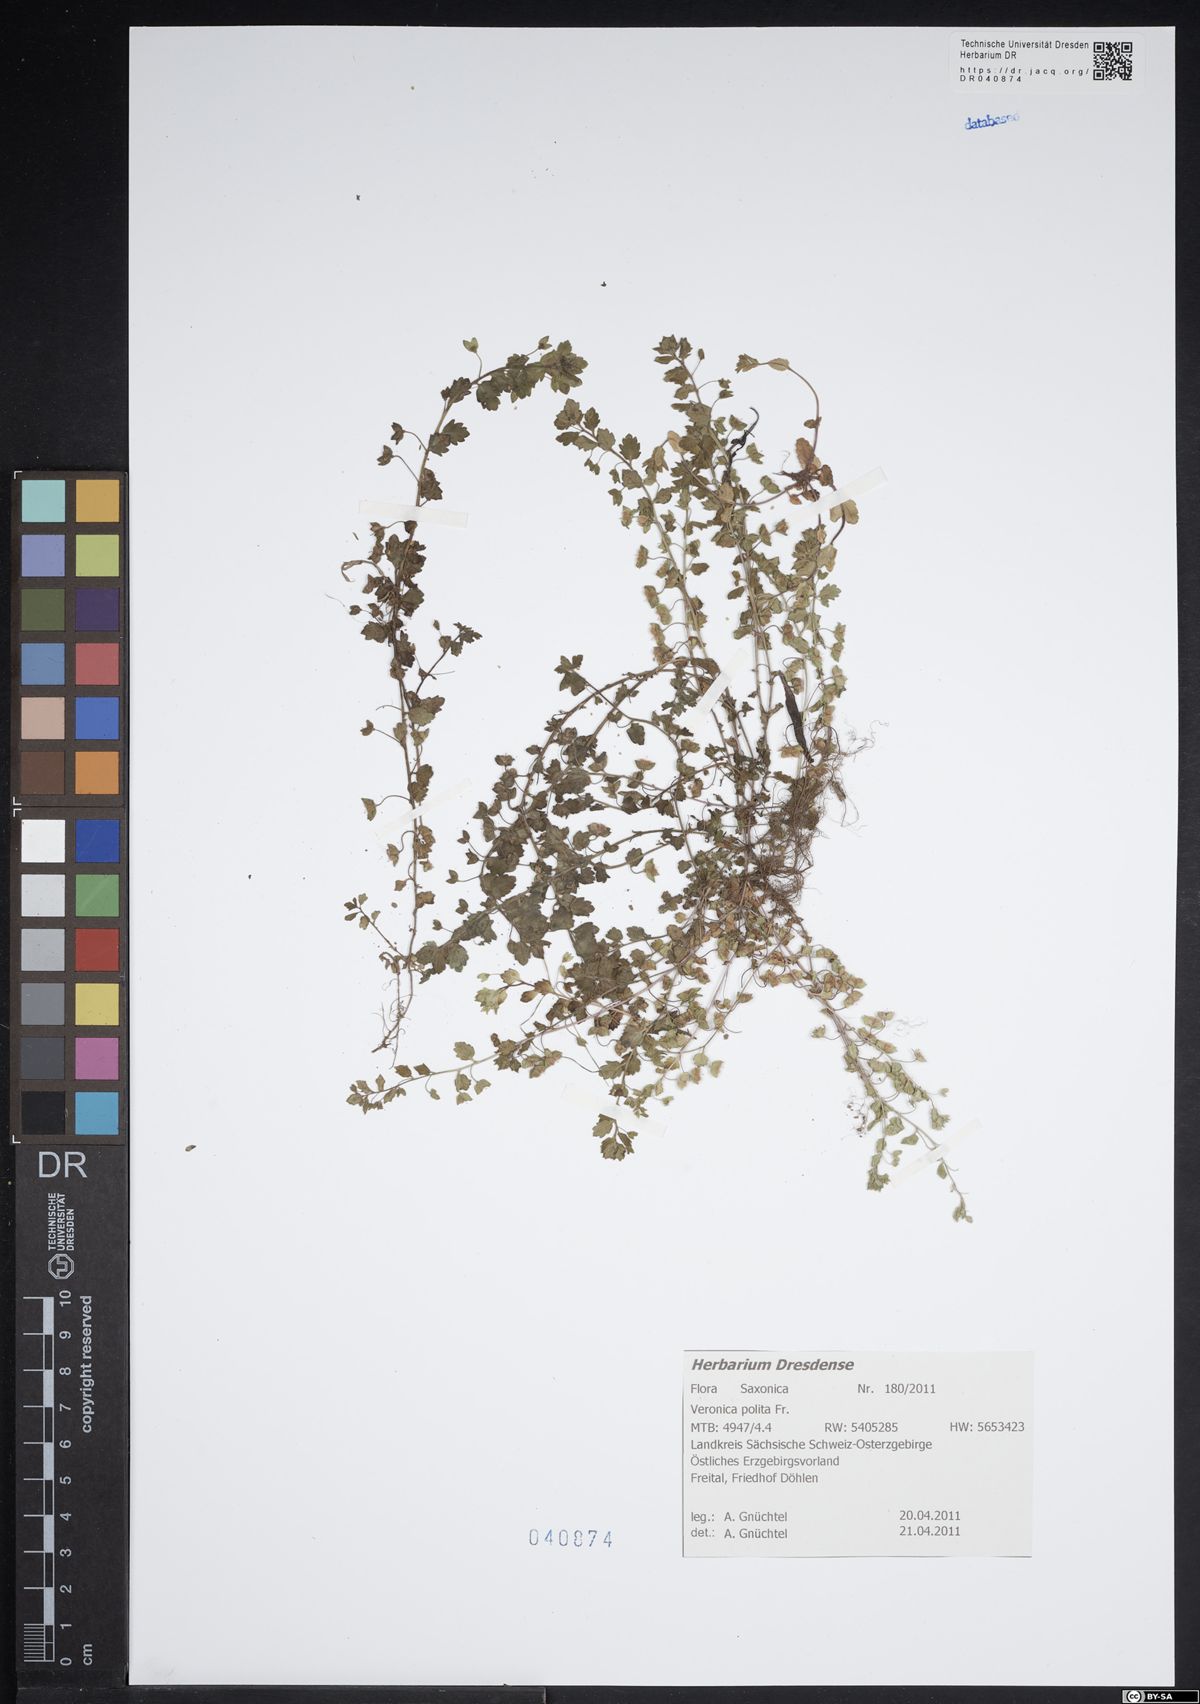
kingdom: Plantae
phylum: Tracheophyta
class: Magnoliopsida
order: Lamiales
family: Plantaginaceae
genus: Veronica
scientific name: Veronica polita
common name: Grey field-speedwell
